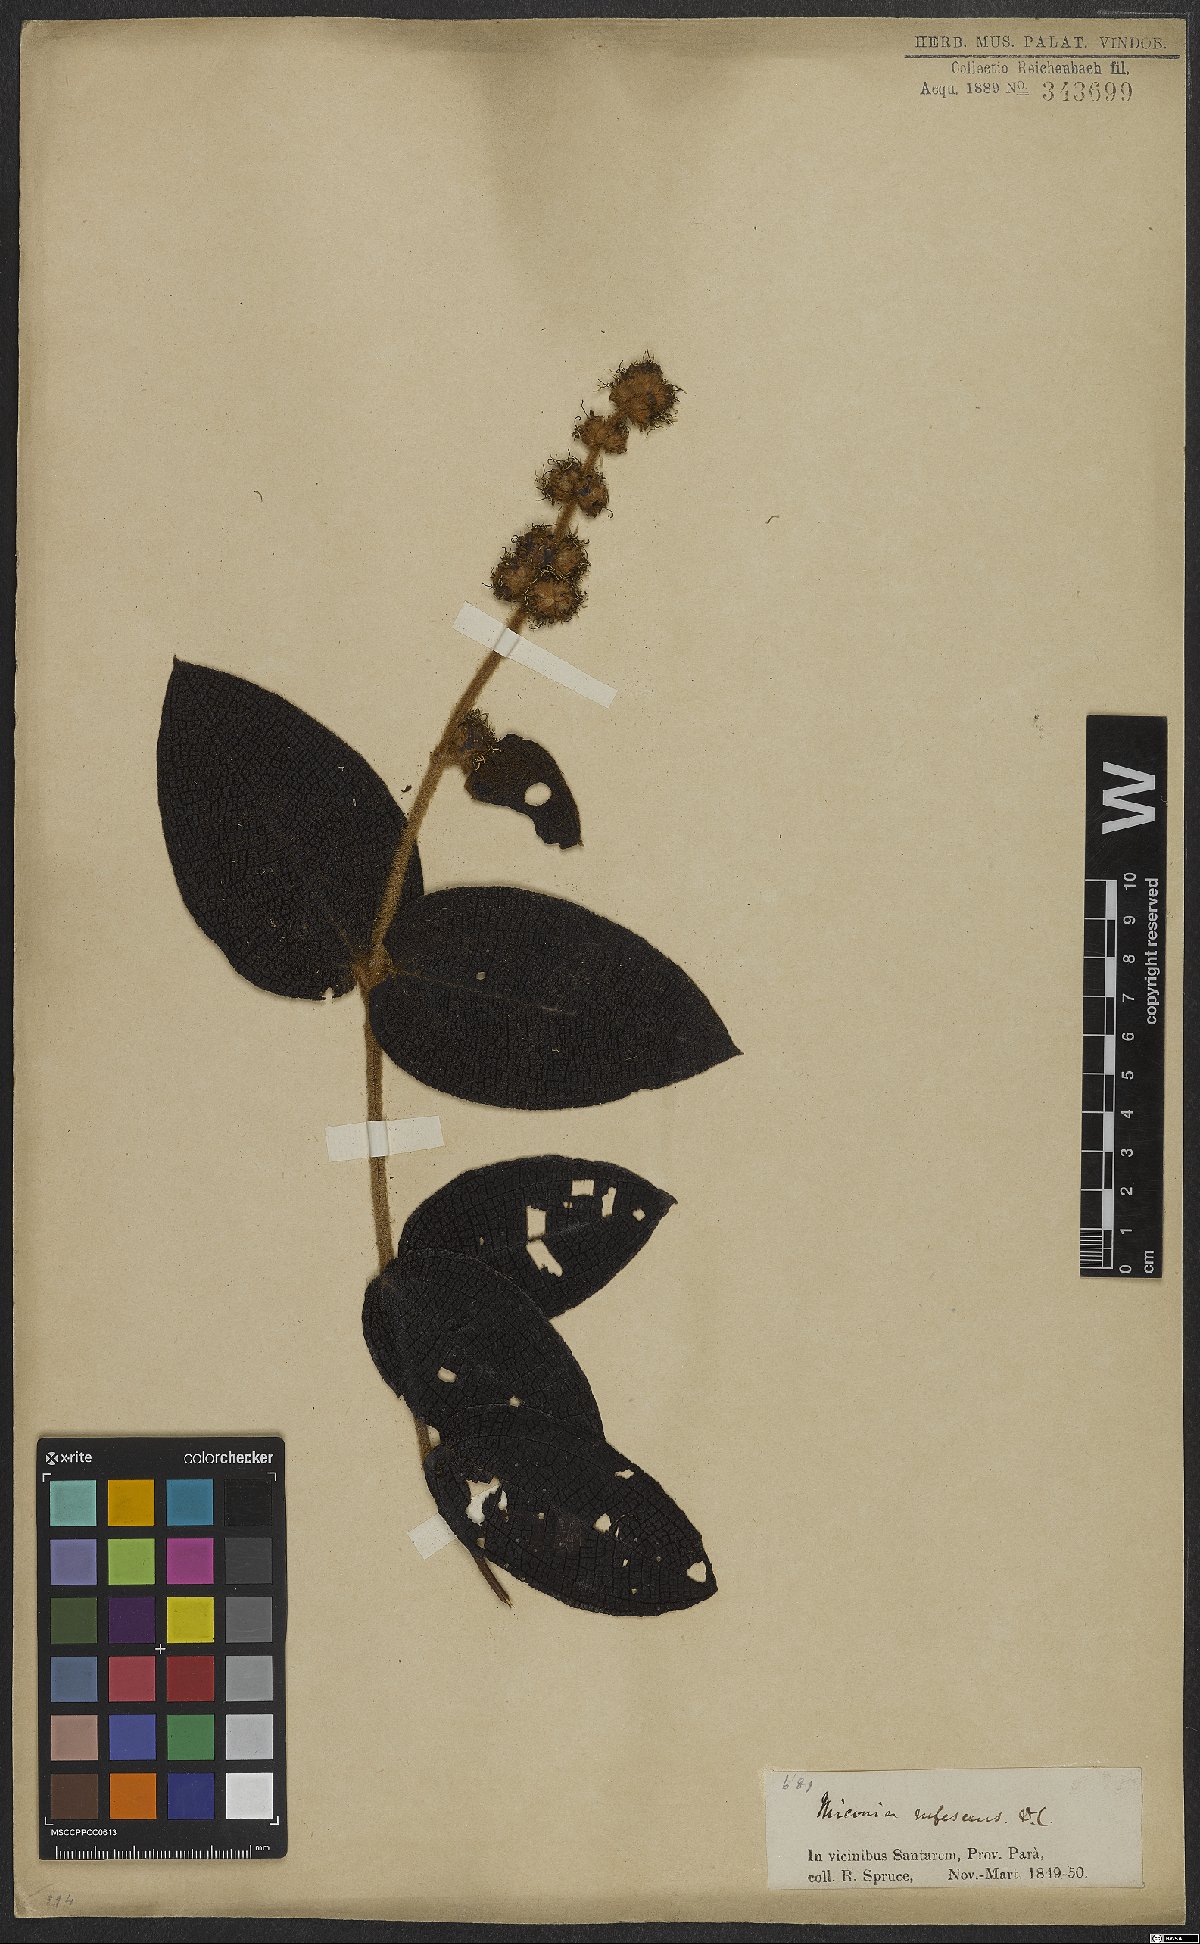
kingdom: Plantae
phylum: Tracheophyta
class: Magnoliopsida
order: Myrtales
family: Melastomataceae
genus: Miconia
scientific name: Miconia rufescens
